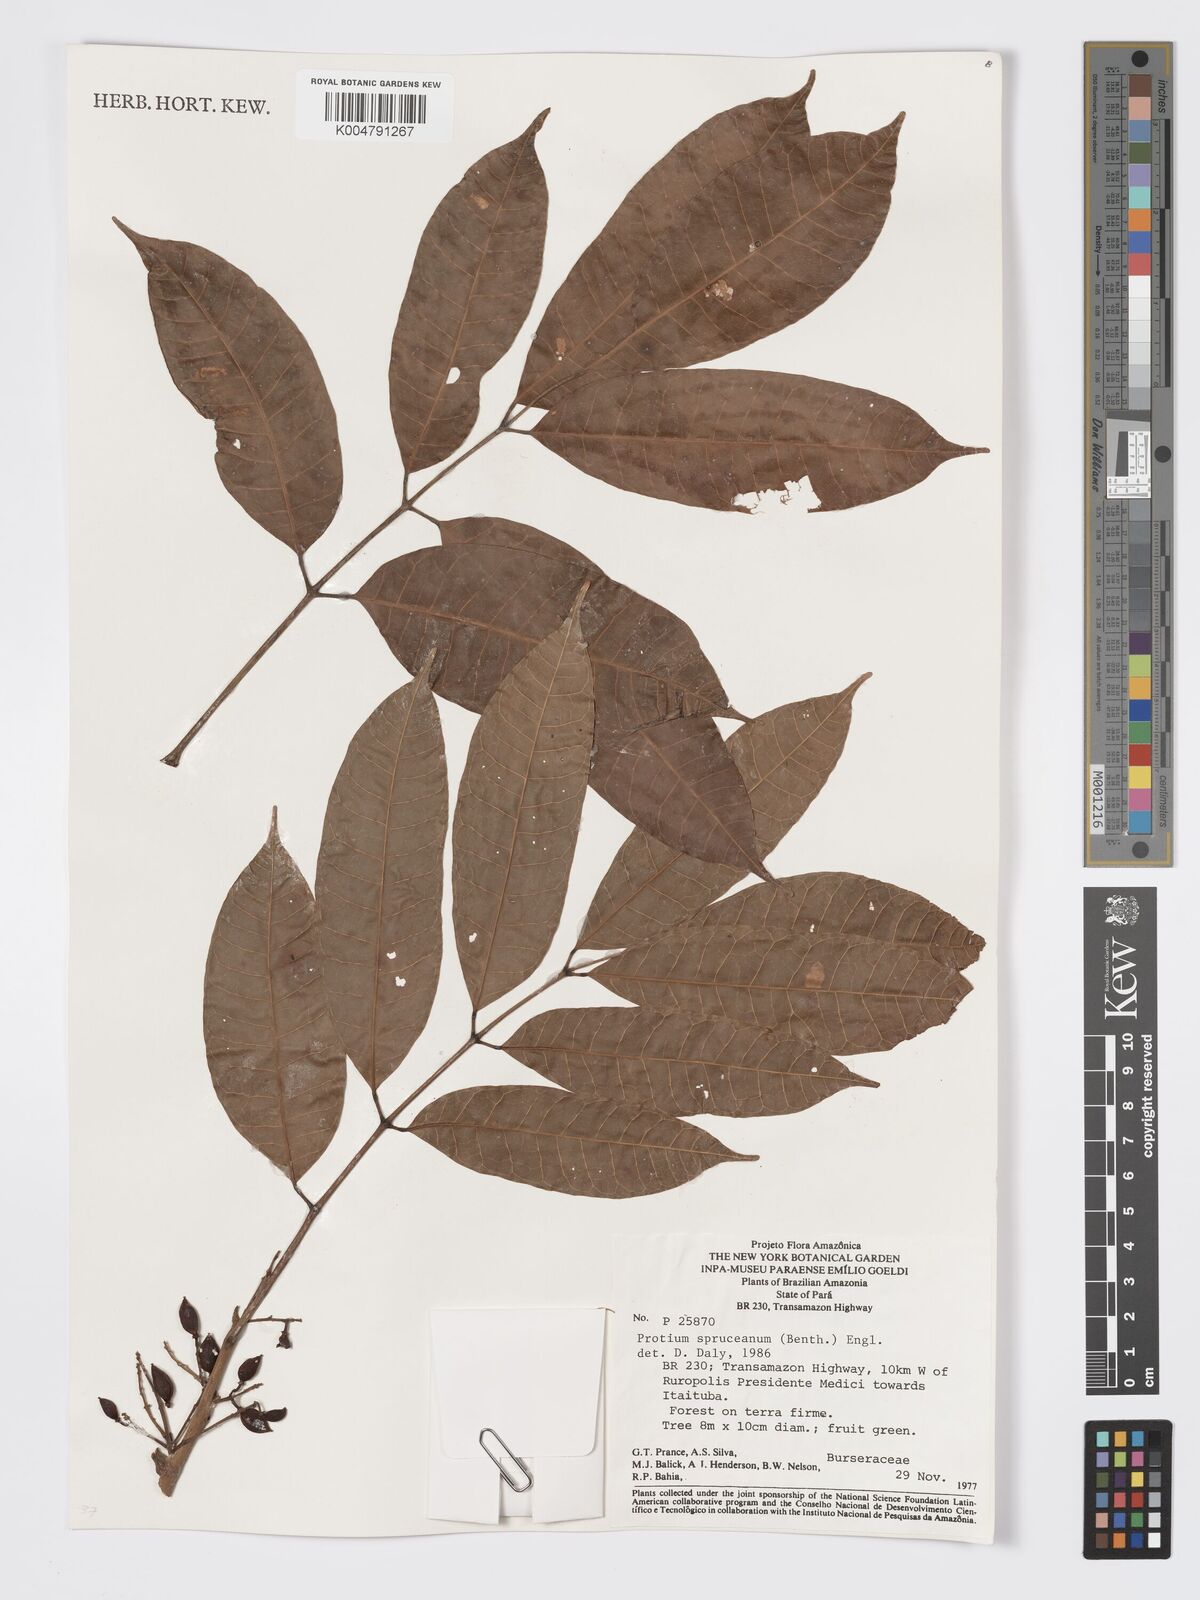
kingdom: Plantae
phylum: Tracheophyta
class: Magnoliopsida
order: Sapindales
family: Burseraceae
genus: Protium
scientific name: Protium spruceanum
